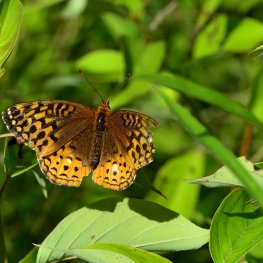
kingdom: Animalia
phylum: Arthropoda
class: Insecta
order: Lepidoptera
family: Nymphalidae
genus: Speyeria
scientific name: Speyeria cybele
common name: Great Spangled Fritillary
